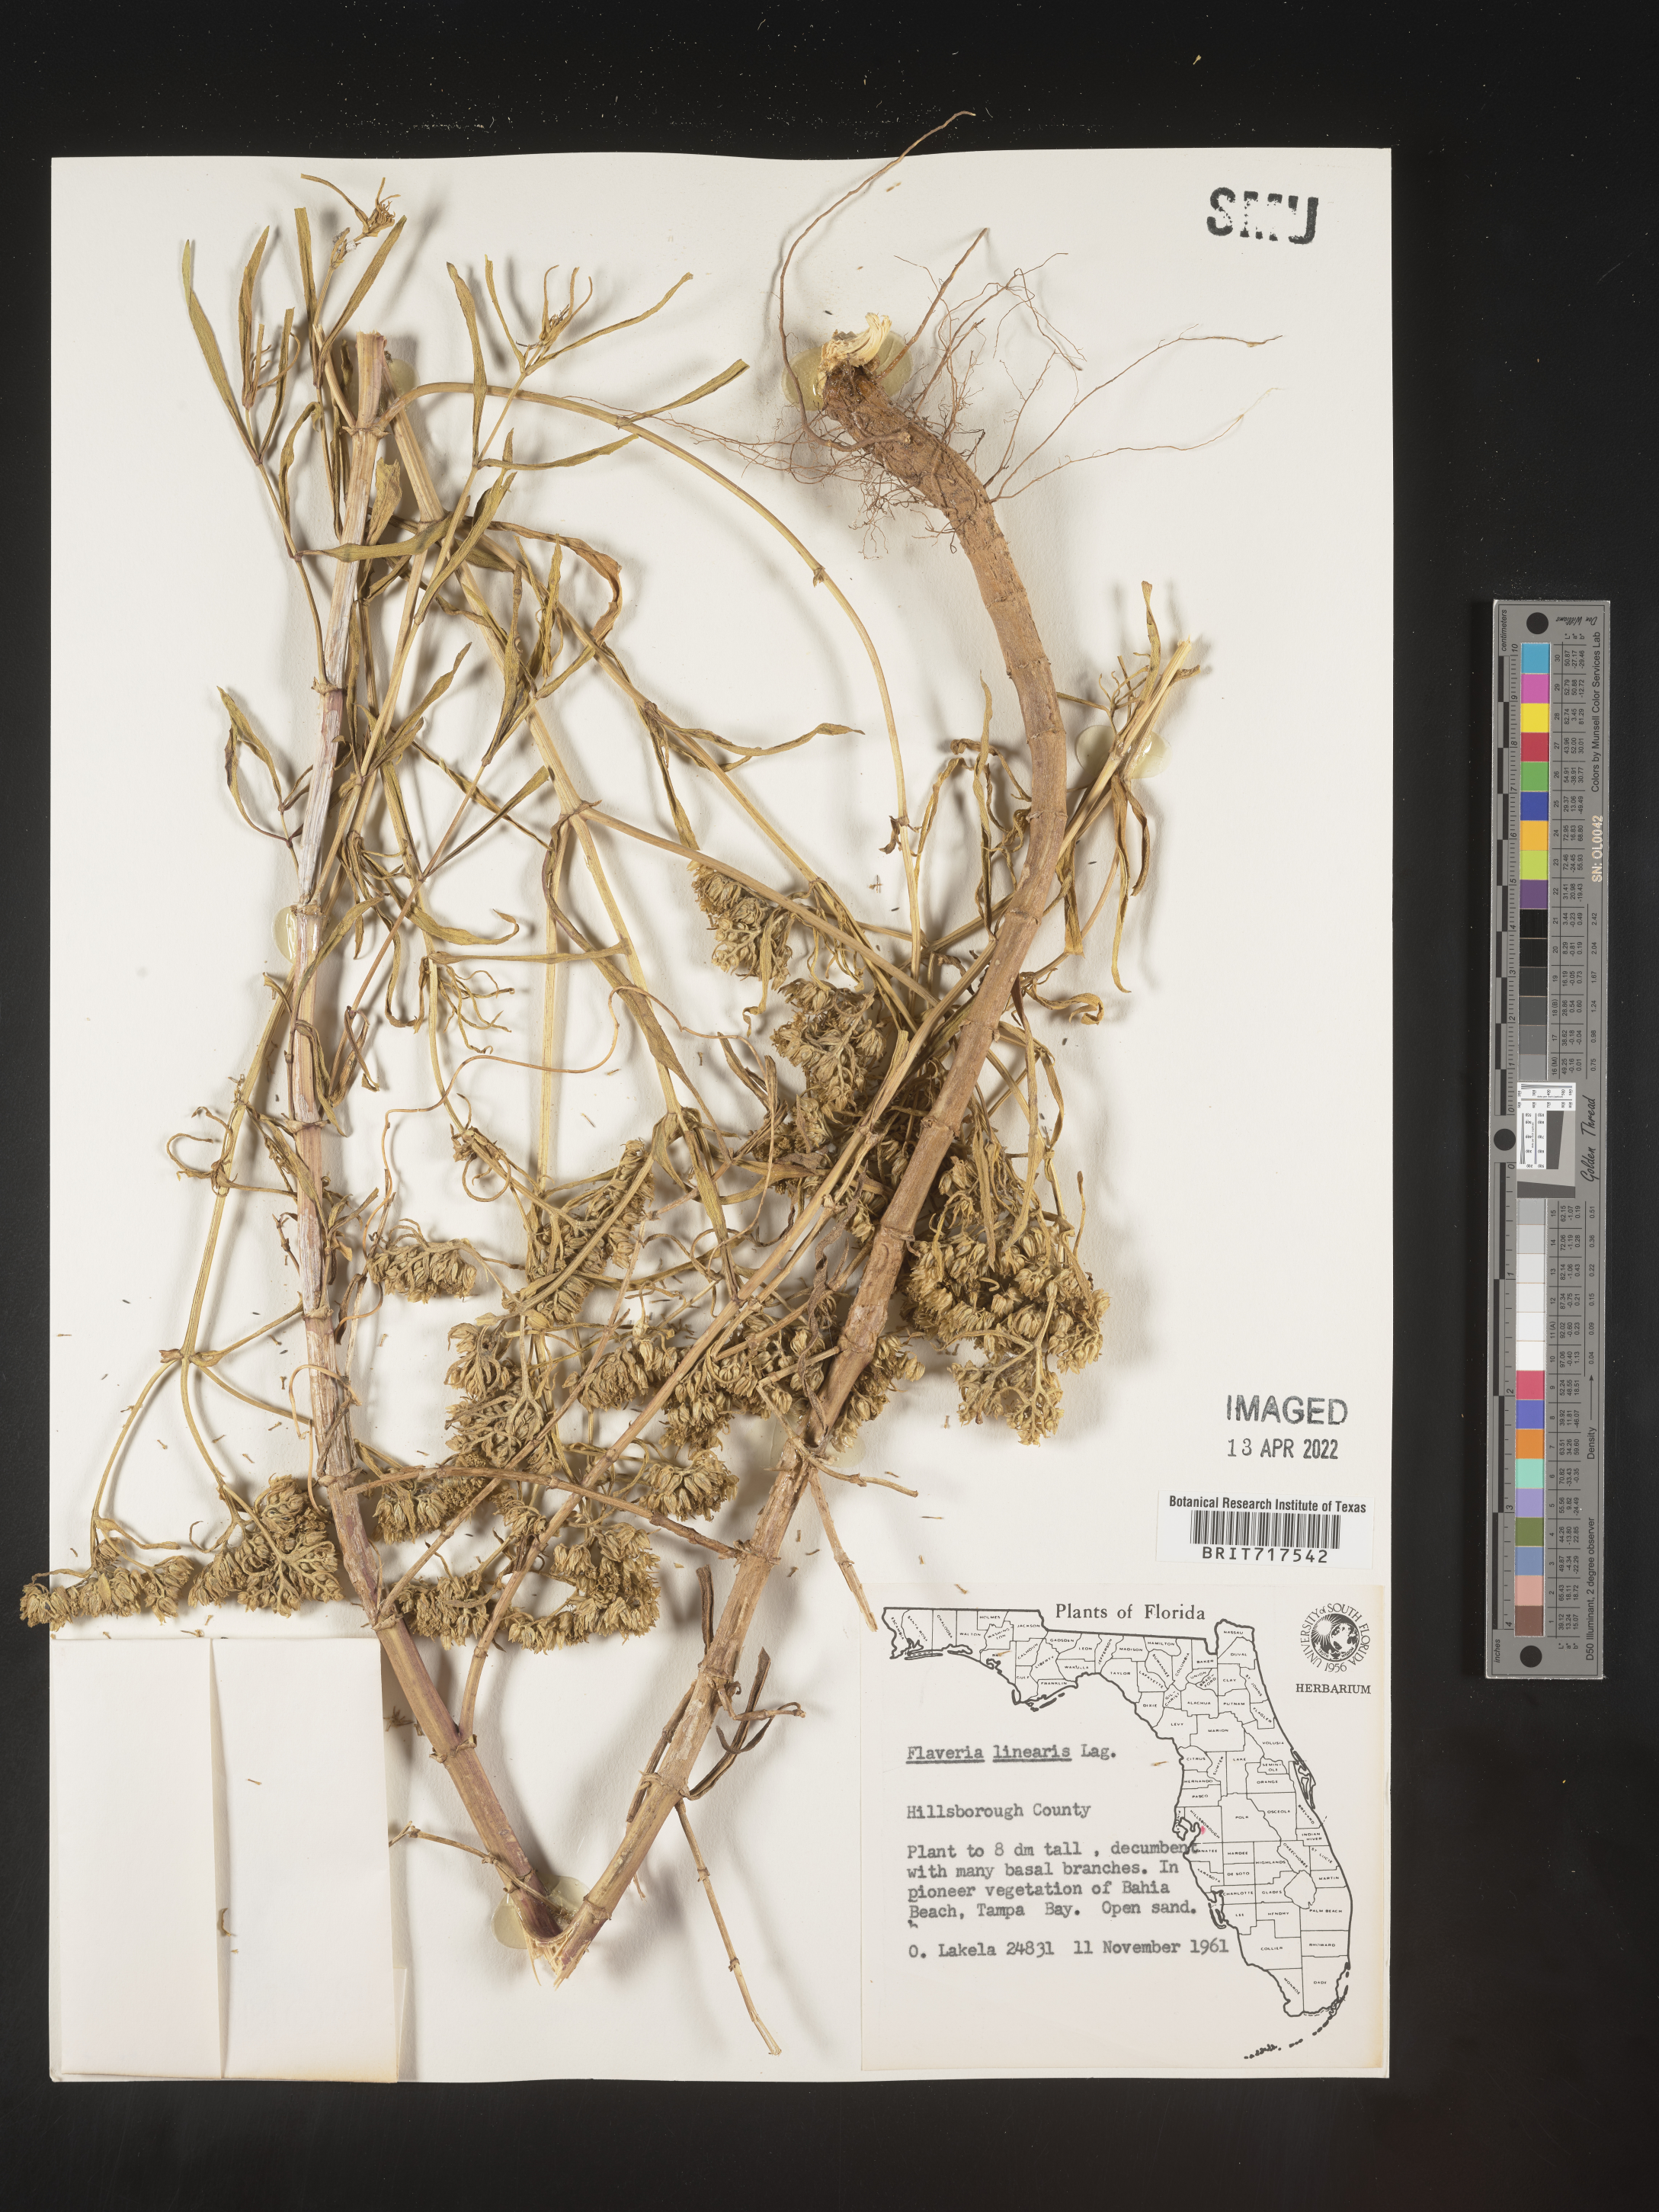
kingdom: Plantae
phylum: Tracheophyta
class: Magnoliopsida
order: Asterales
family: Asteraceae
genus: Flaveria
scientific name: Flaveria linearis
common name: Yellowtop
